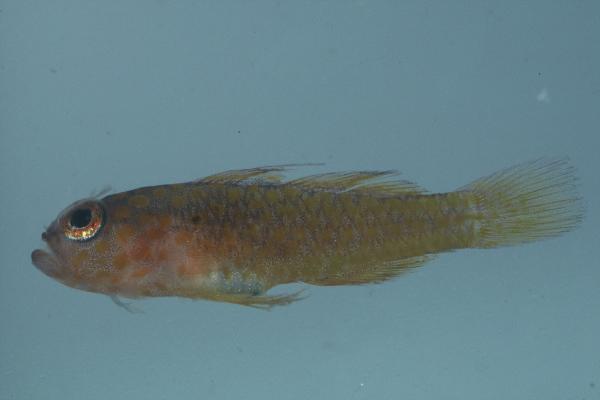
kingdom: Animalia
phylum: Chordata
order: Perciformes
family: Gobiidae
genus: Trimma
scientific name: Trimma flammeum
